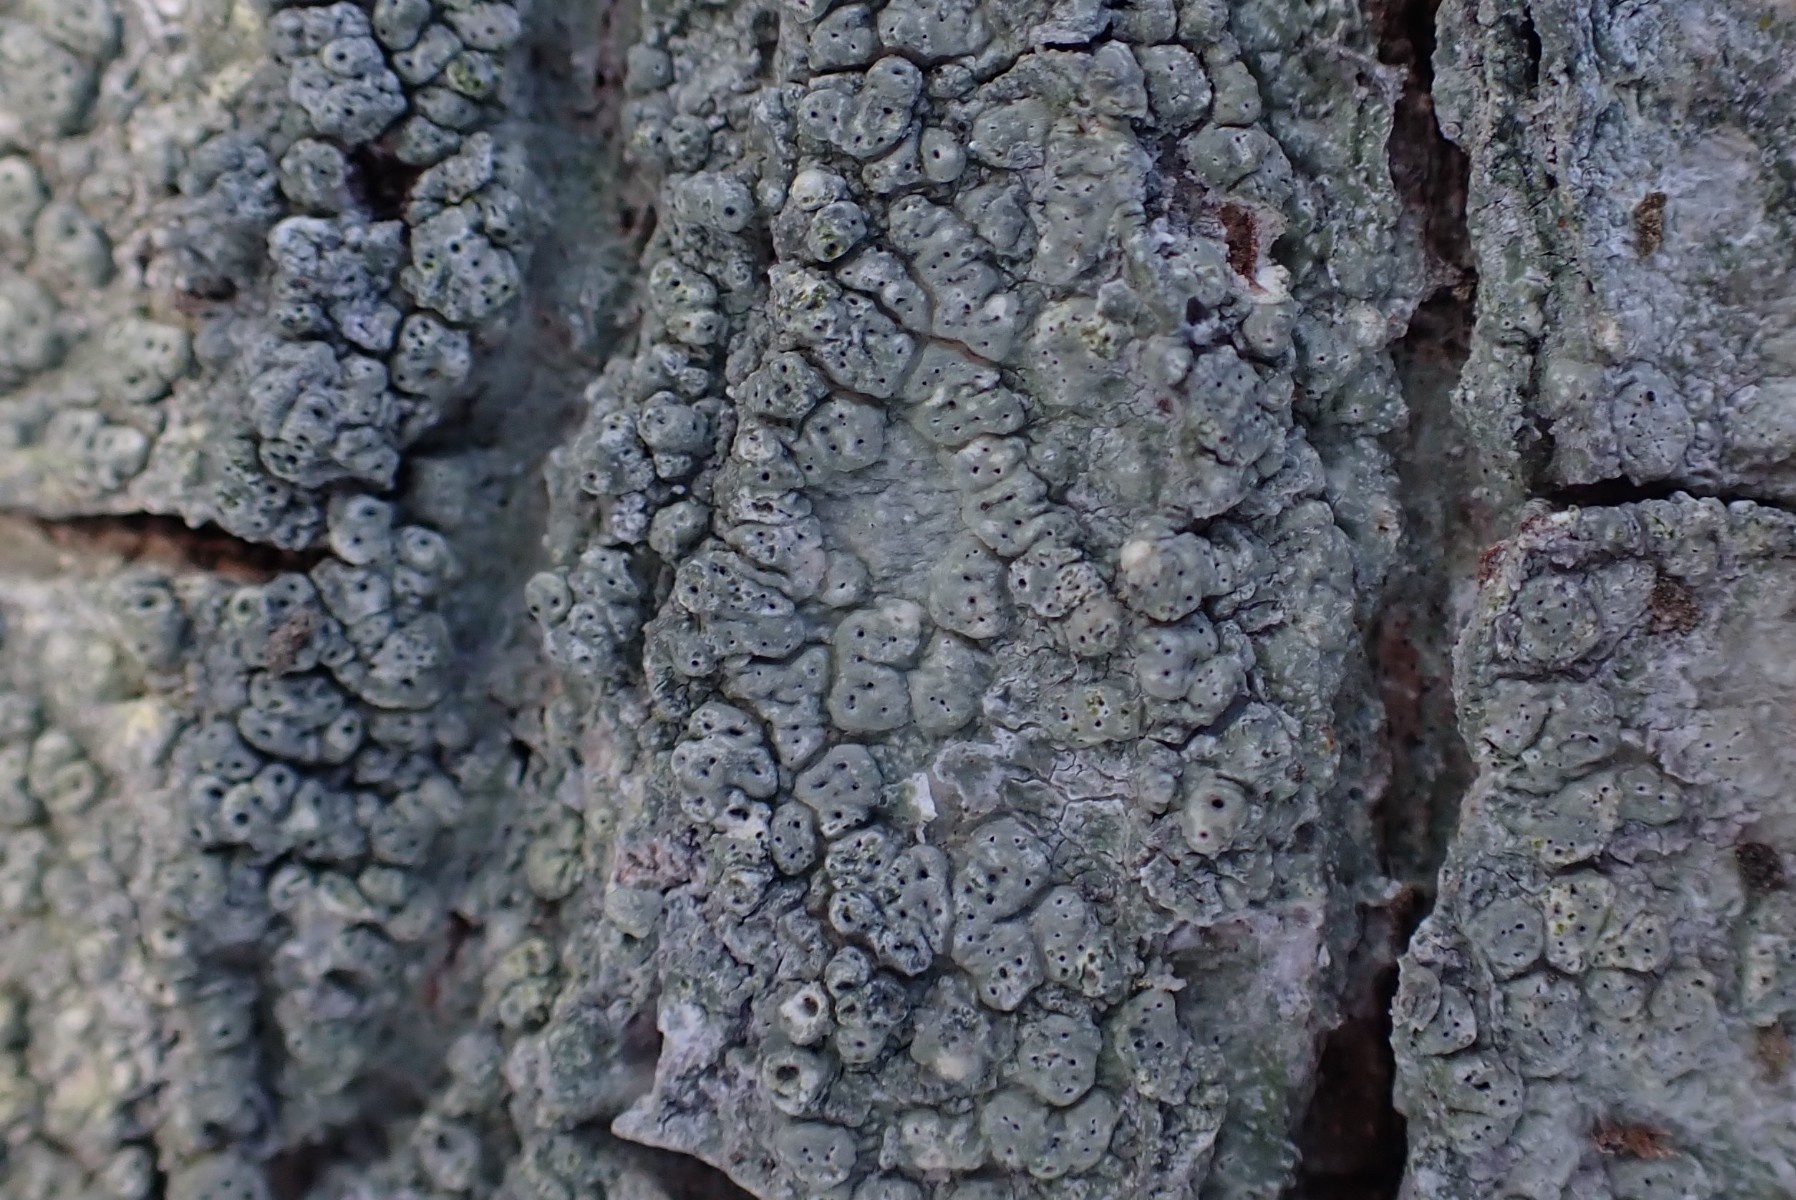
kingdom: Fungi
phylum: Ascomycota
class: Lecanoromycetes
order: Pertusariales
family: Pertusariaceae
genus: Pertusaria
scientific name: Pertusaria pertusa
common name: almindelig prikvortelav
